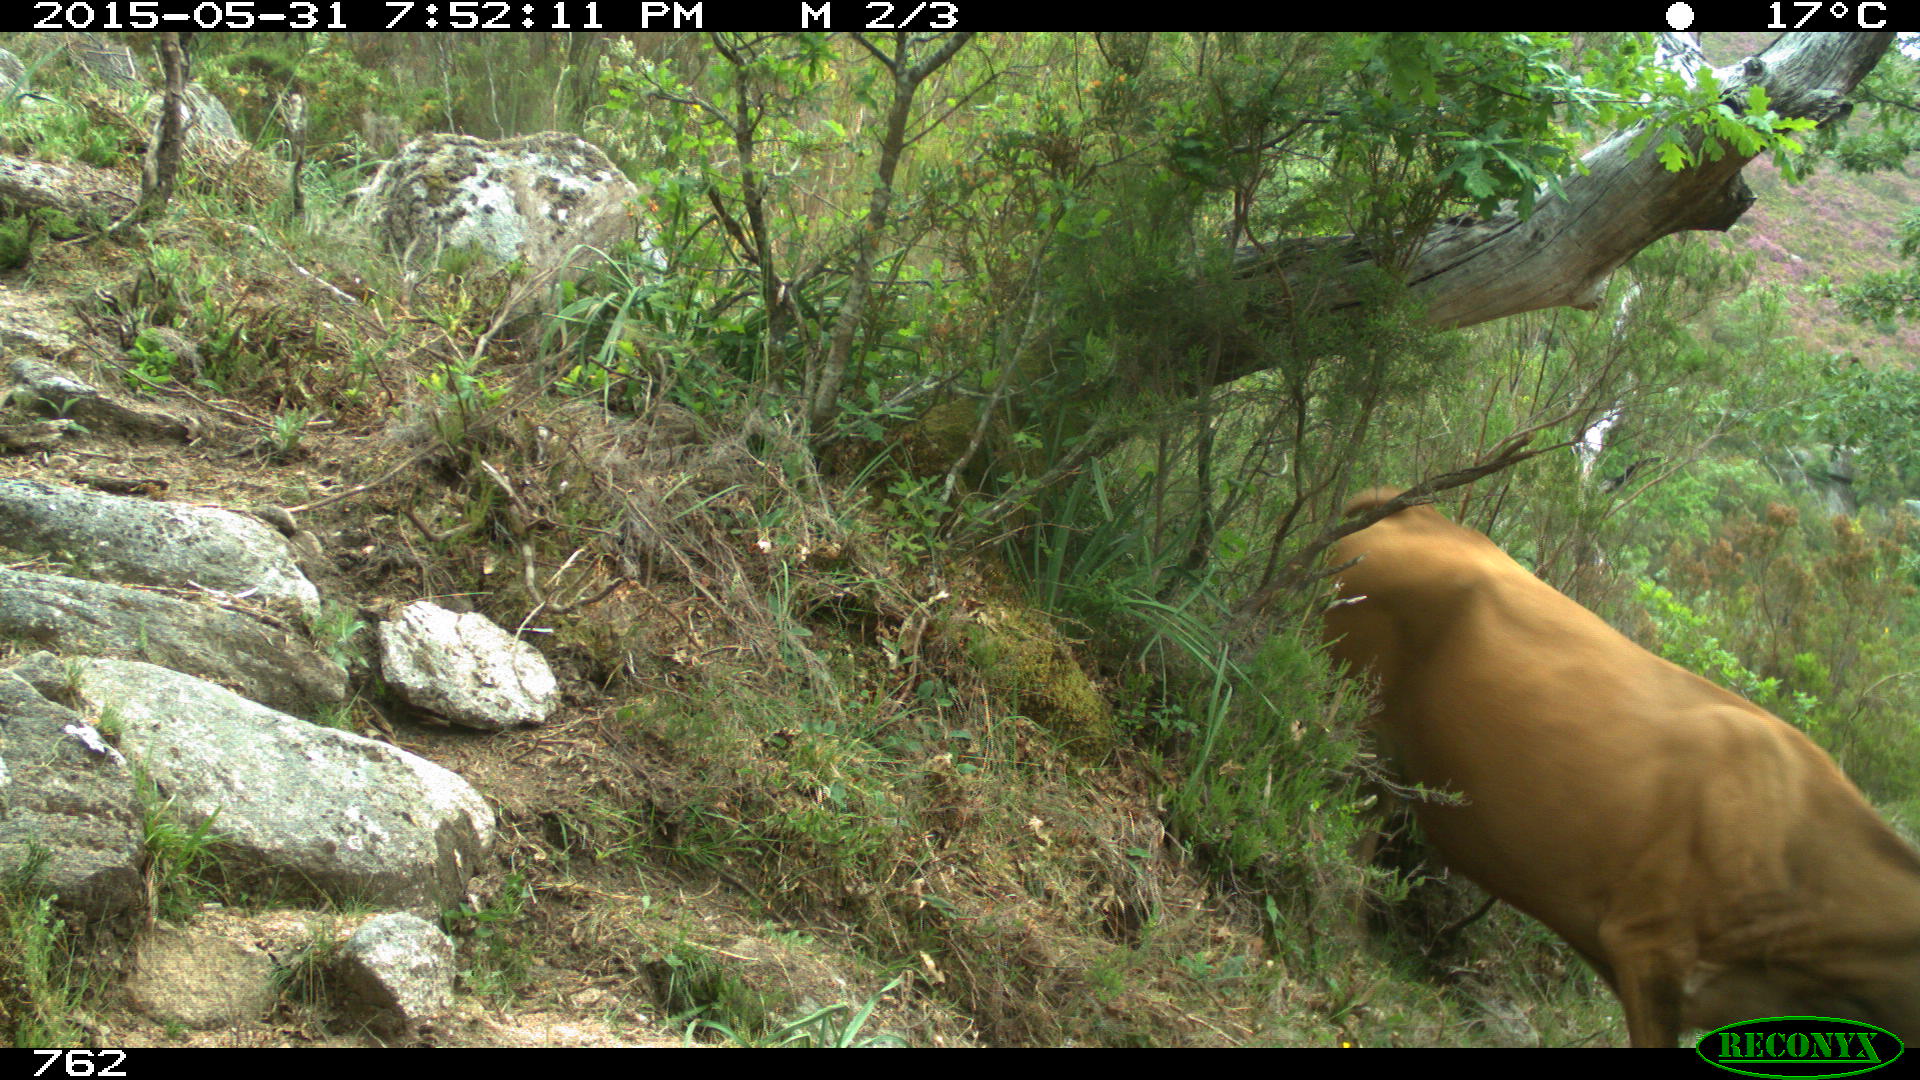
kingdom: Animalia
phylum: Chordata
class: Mammalia
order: Artiodactyla
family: Bovidae
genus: Bos
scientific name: Bos taurus
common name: Domesticated cattle
